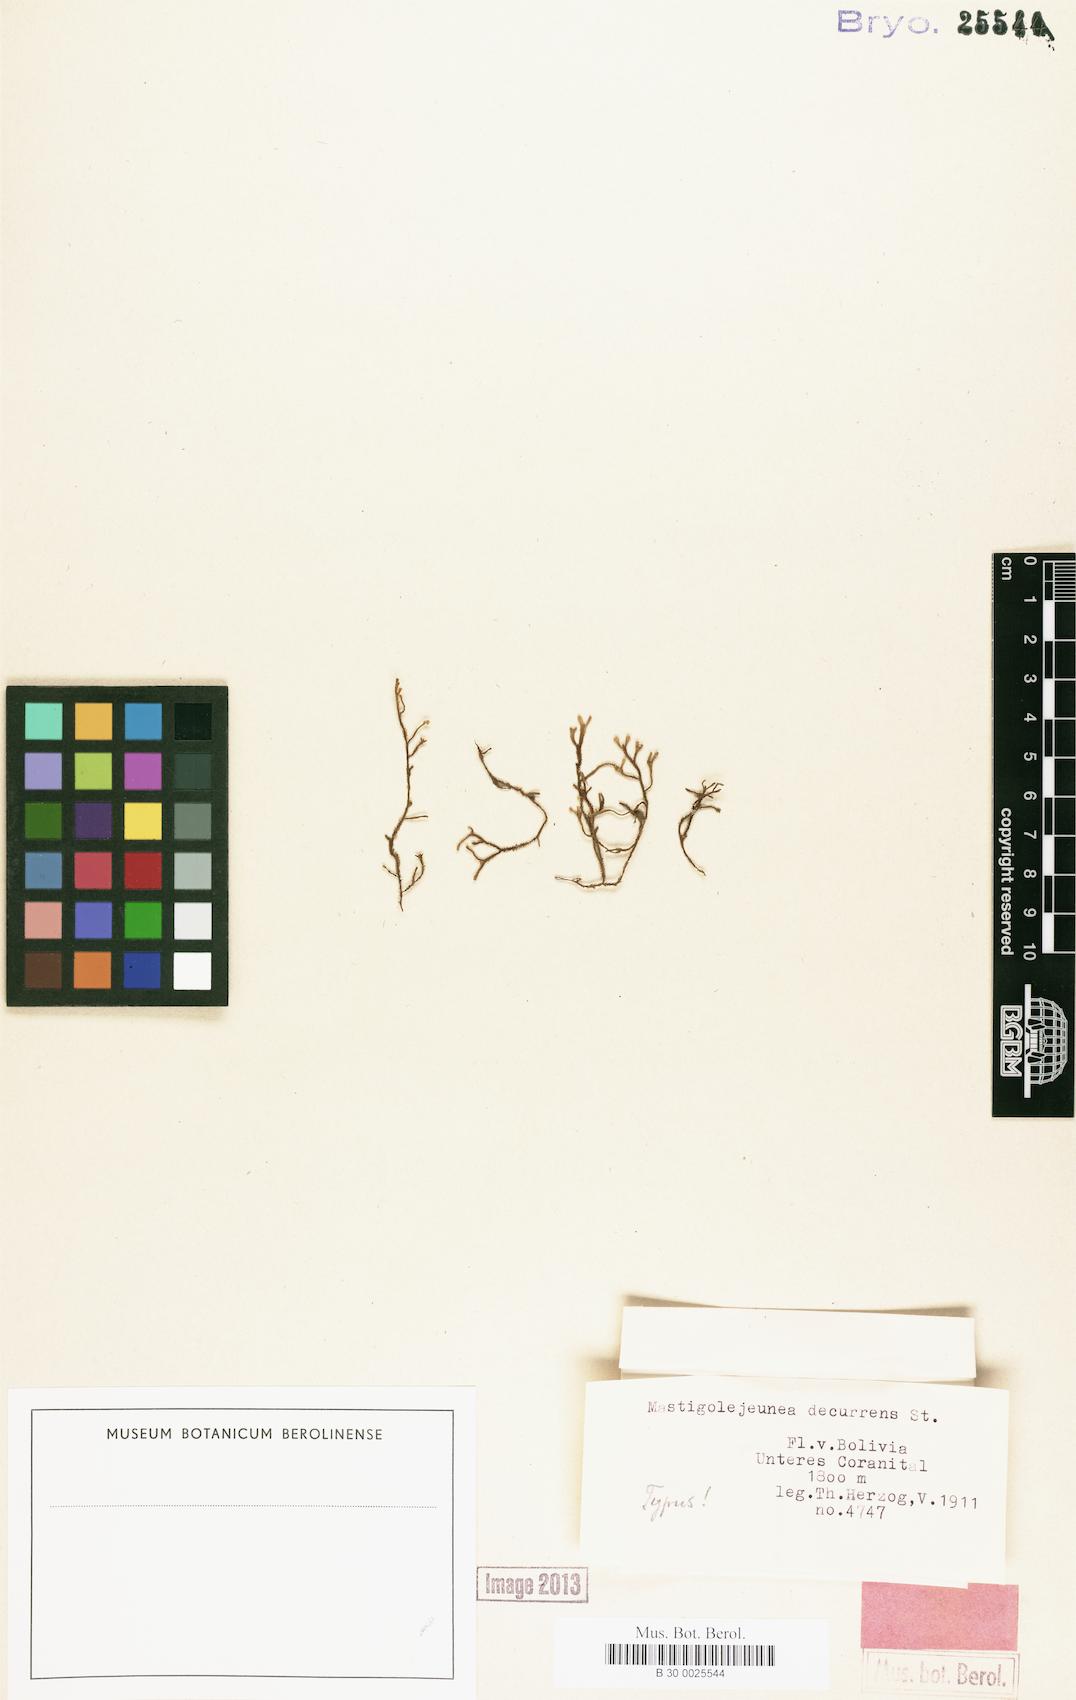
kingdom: Plantae
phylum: Marchantiophyta
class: Jungermanniopsida
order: Porellales
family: Lejeuneaceae
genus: Frullanoides
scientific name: Frullanoides densifolia
